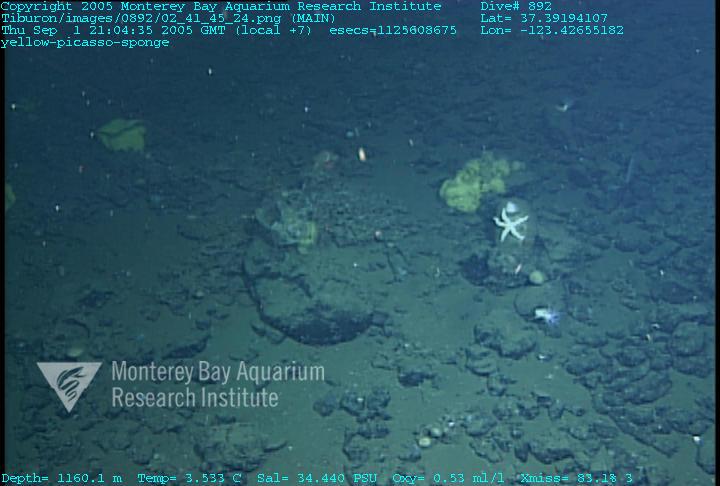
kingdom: Animalia
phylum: Porifera
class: Hexactinellida
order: Lyssacinosida
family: Rossellidae
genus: Staurocalyptus
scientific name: Staurocalyptus
